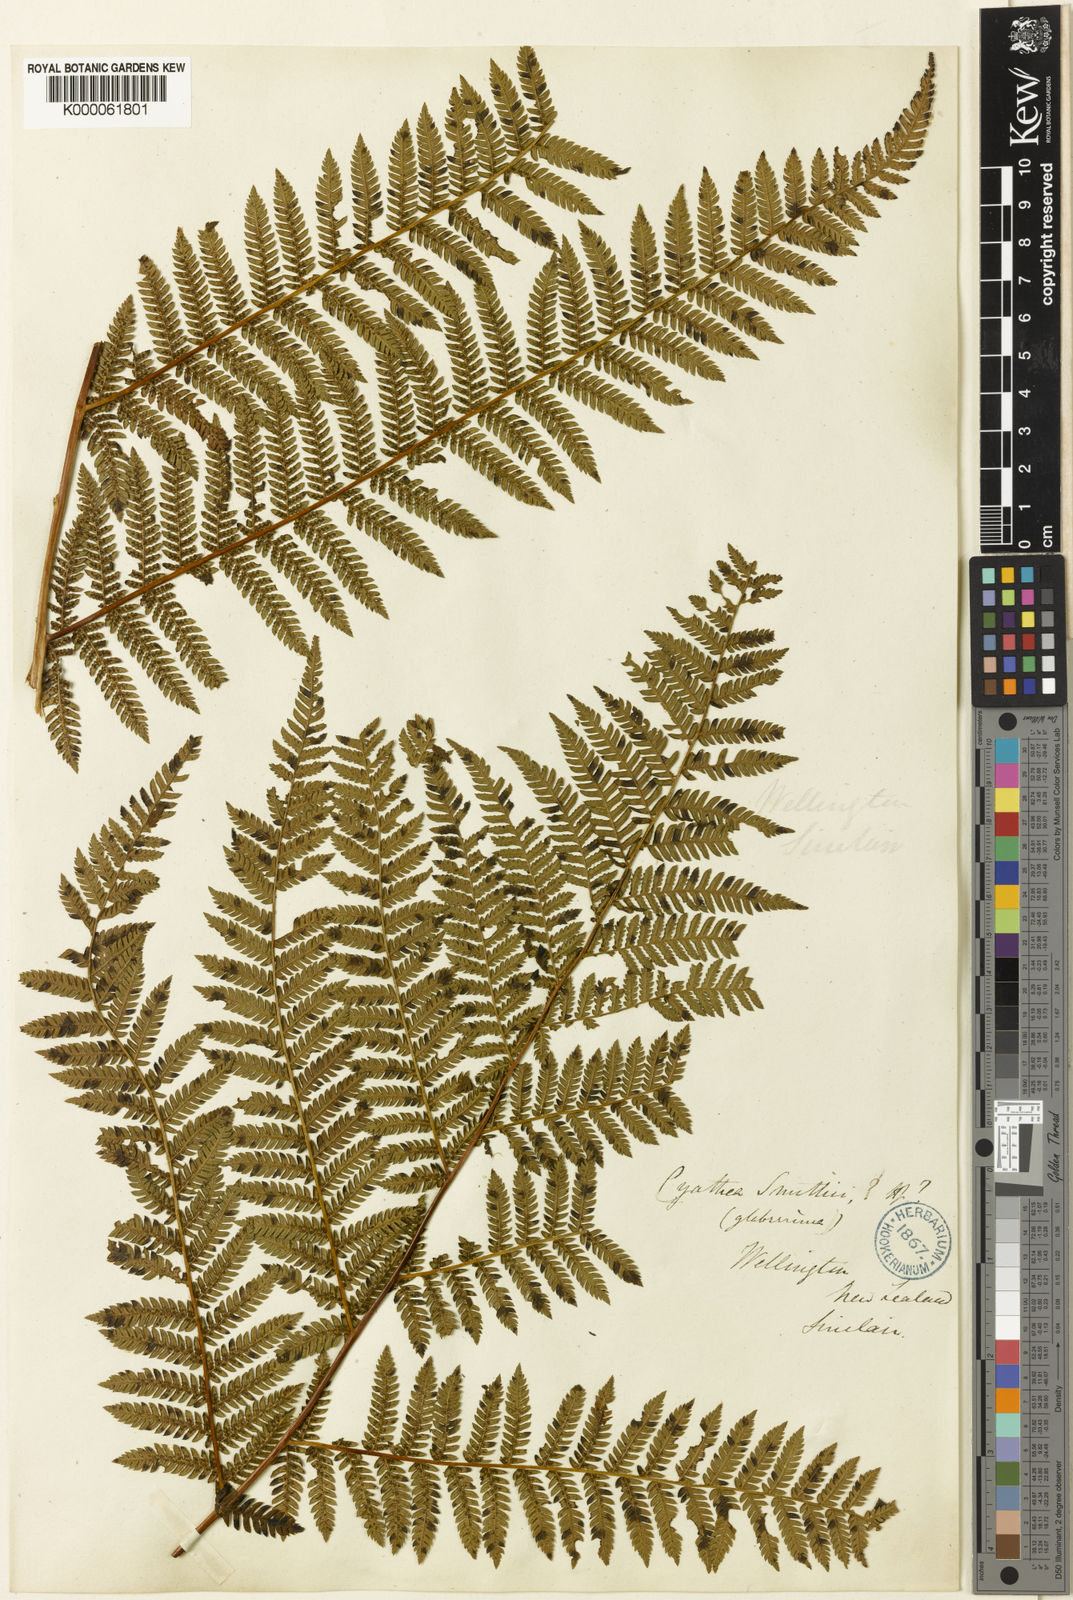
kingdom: Plantae
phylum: Tracheophyta
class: Polypodiopsida
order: Cyatheales
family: Cyatheaceae
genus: Alsophila
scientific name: Alsophila smithii
